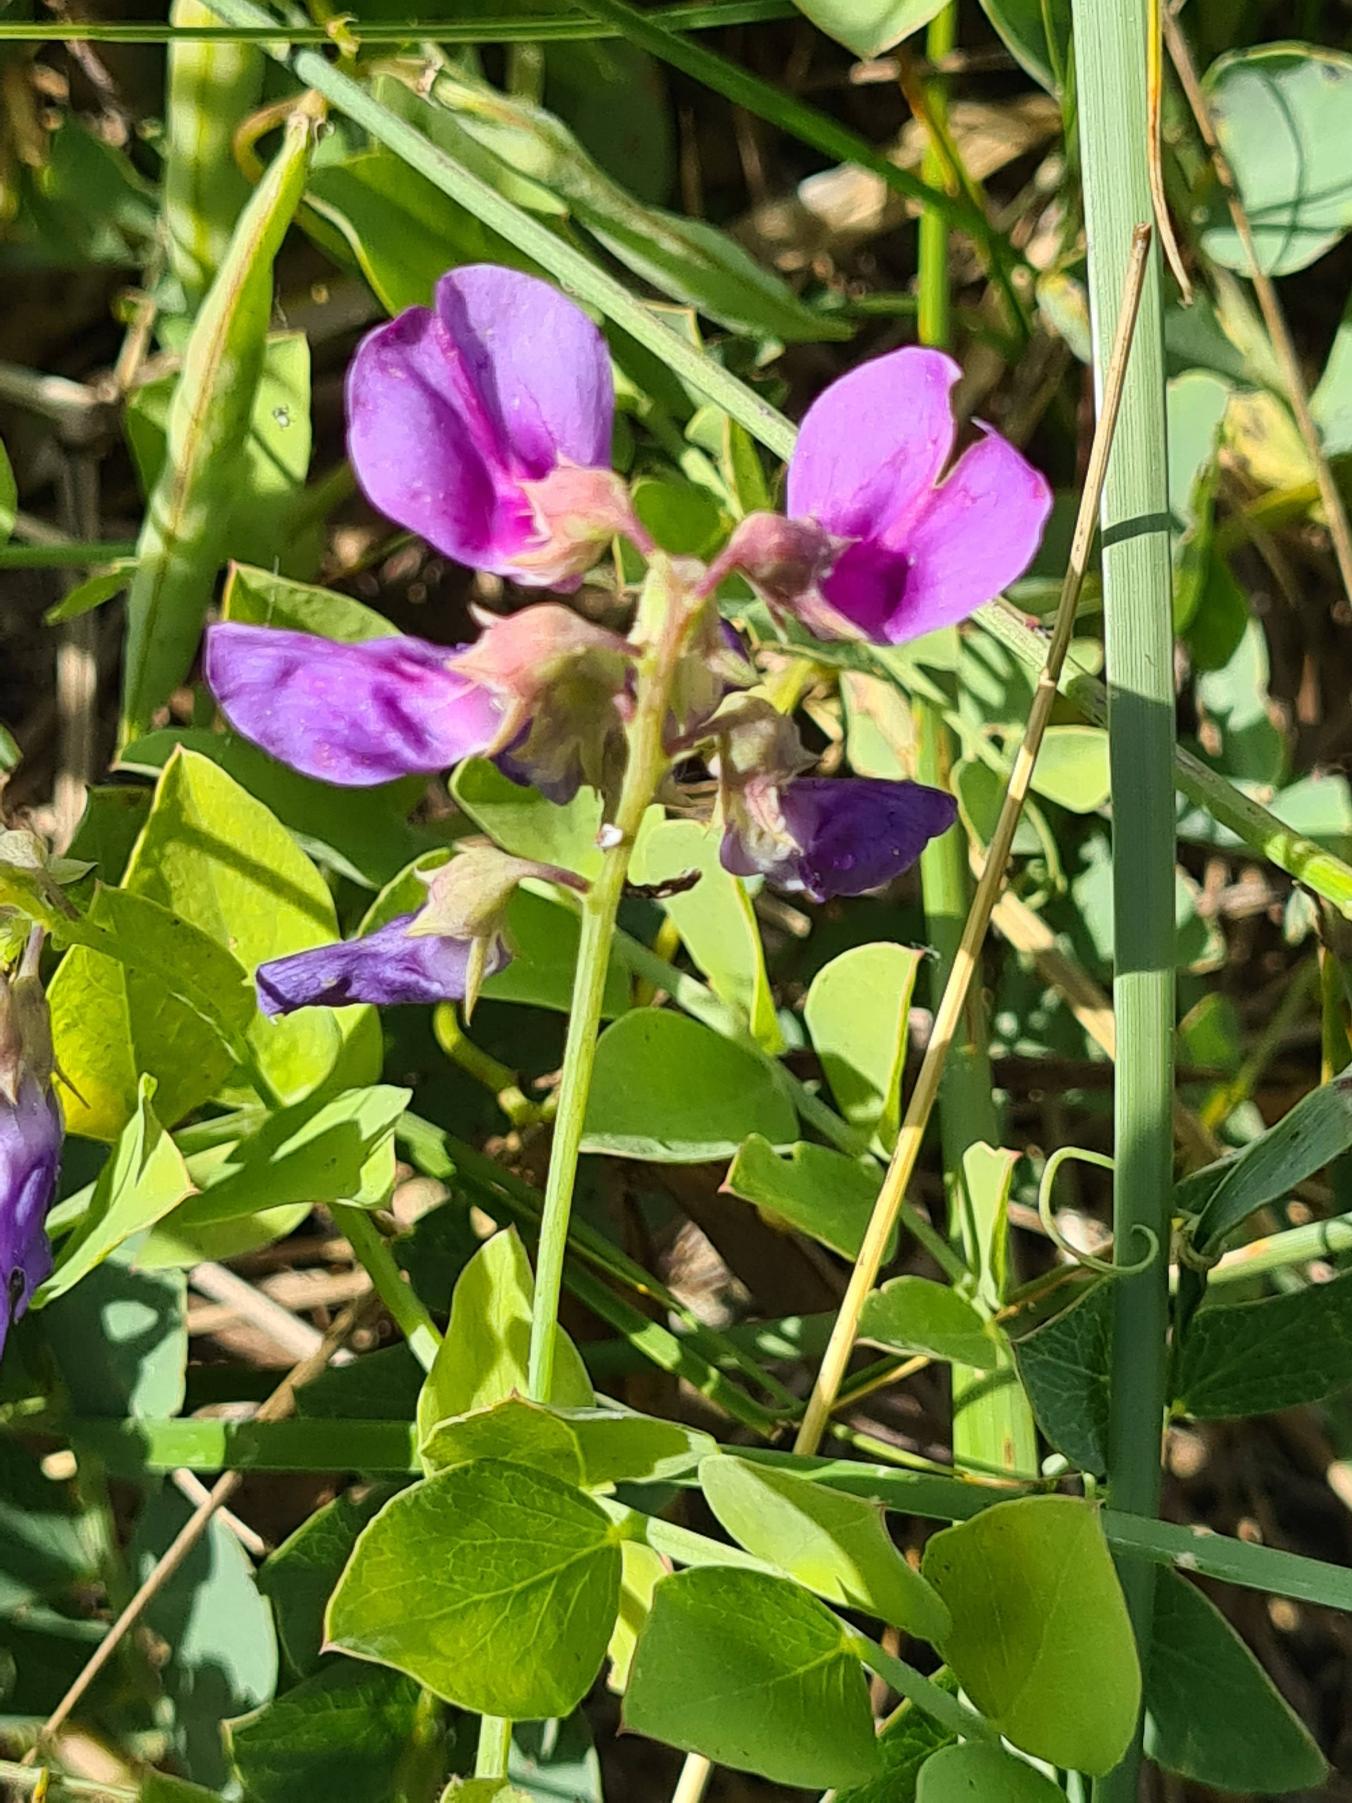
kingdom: Plantae
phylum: Tracheophyta
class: Magnoliopsida
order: Fabales
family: Fabaceae
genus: Lathyrus
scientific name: Lathyrus japonicus
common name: Strand-fladbælg
